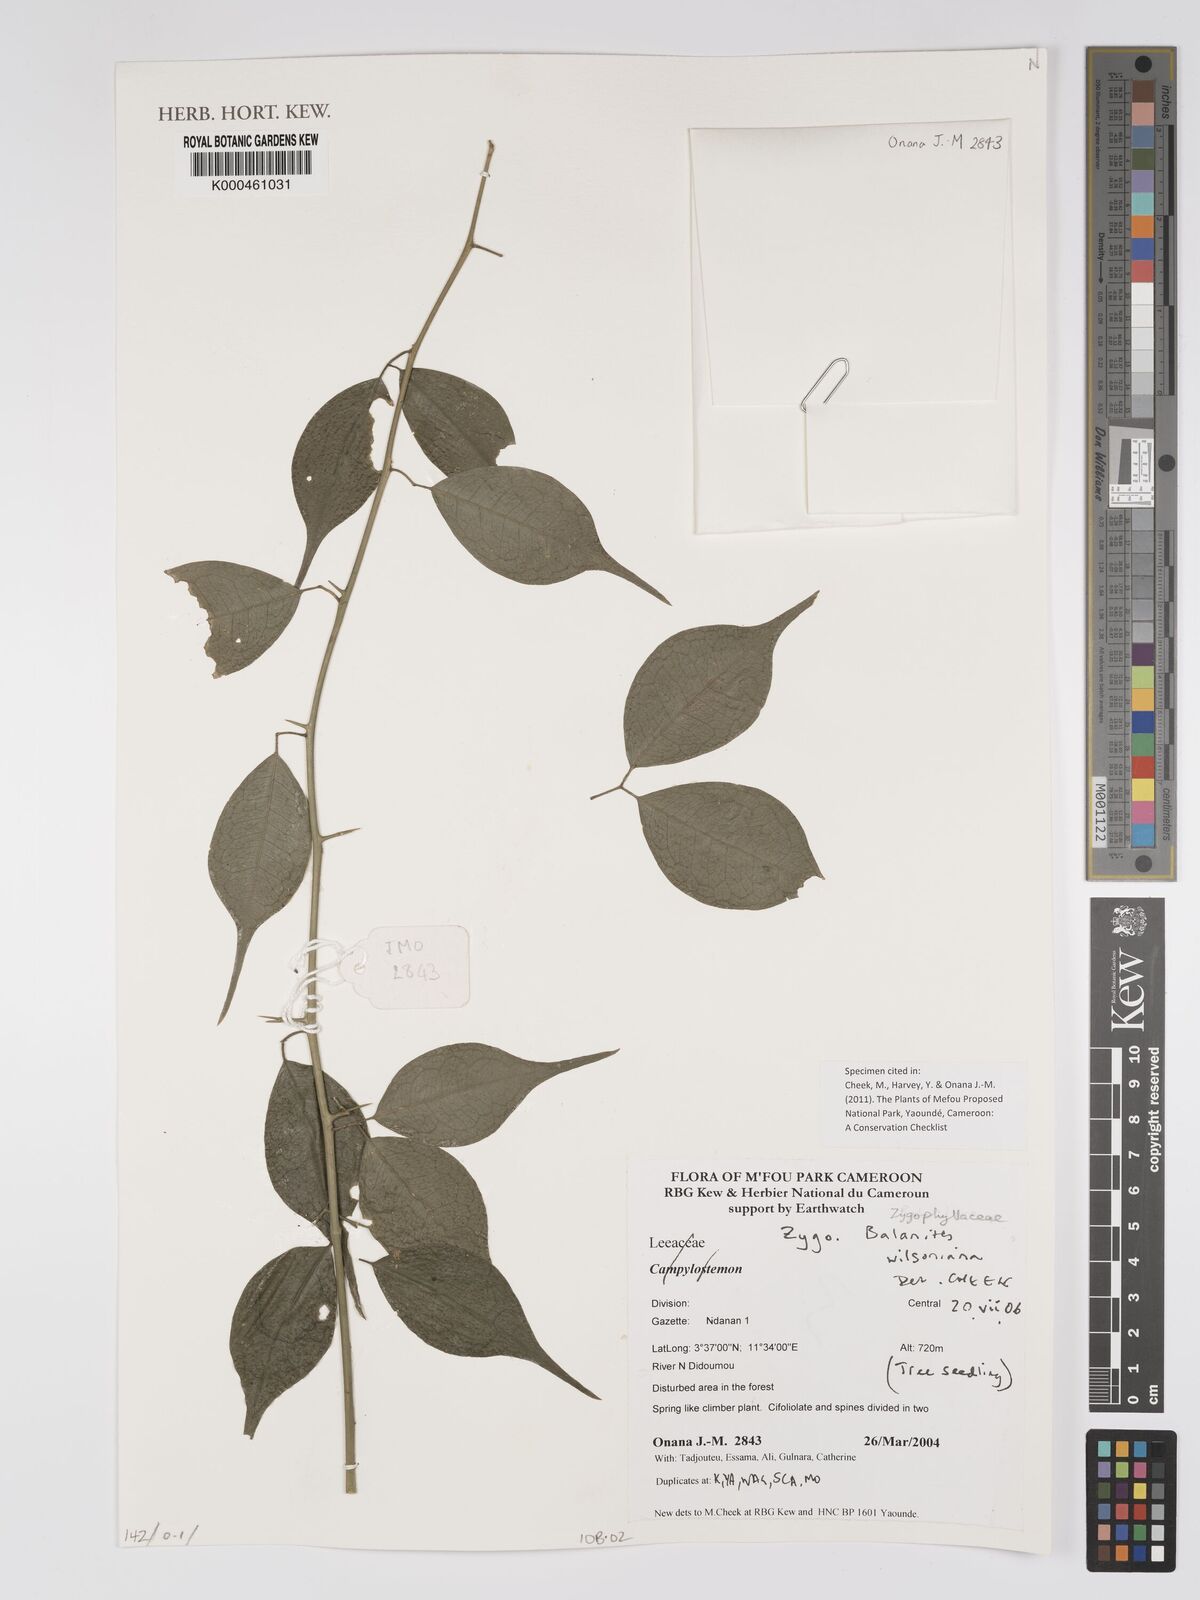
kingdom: Plantae
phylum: Tracheophyta
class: Magnoliopsida
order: Zygophyllales
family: Zygophyllaceae
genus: Balanites
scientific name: Balanites wilsoniana
